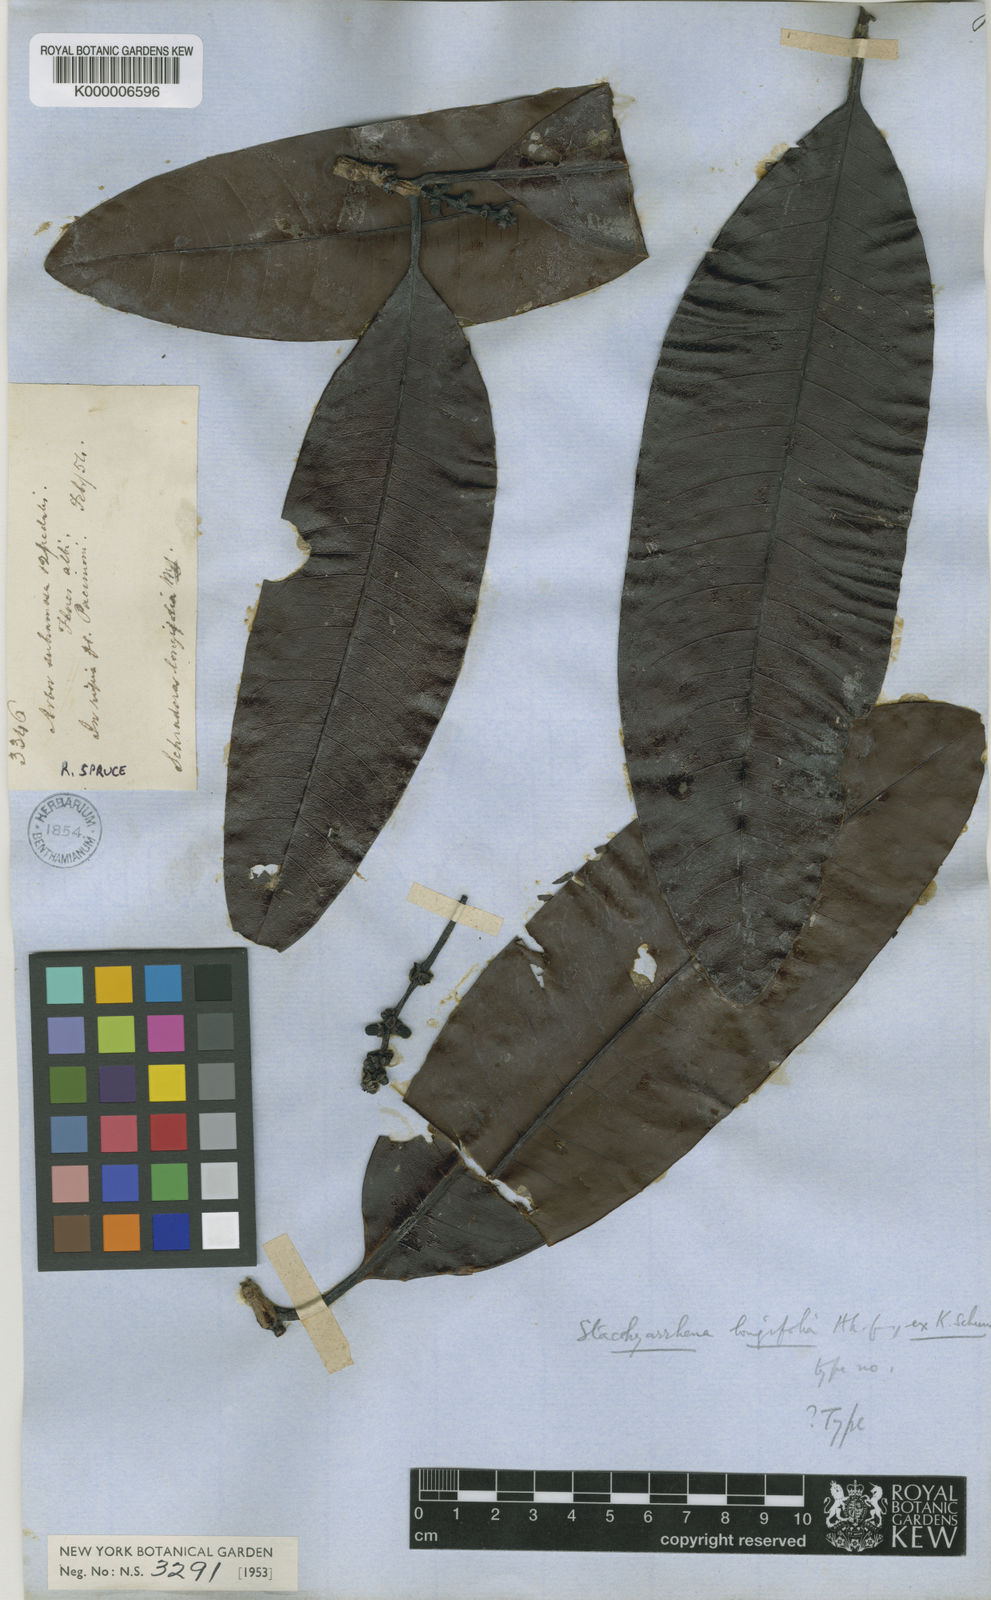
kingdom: Plantae
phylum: Tracheophyta
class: Magnoliopsida
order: Gentianales
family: Rubiaceae
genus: Stachyarrhena
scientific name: Stachyarrhena spicata
